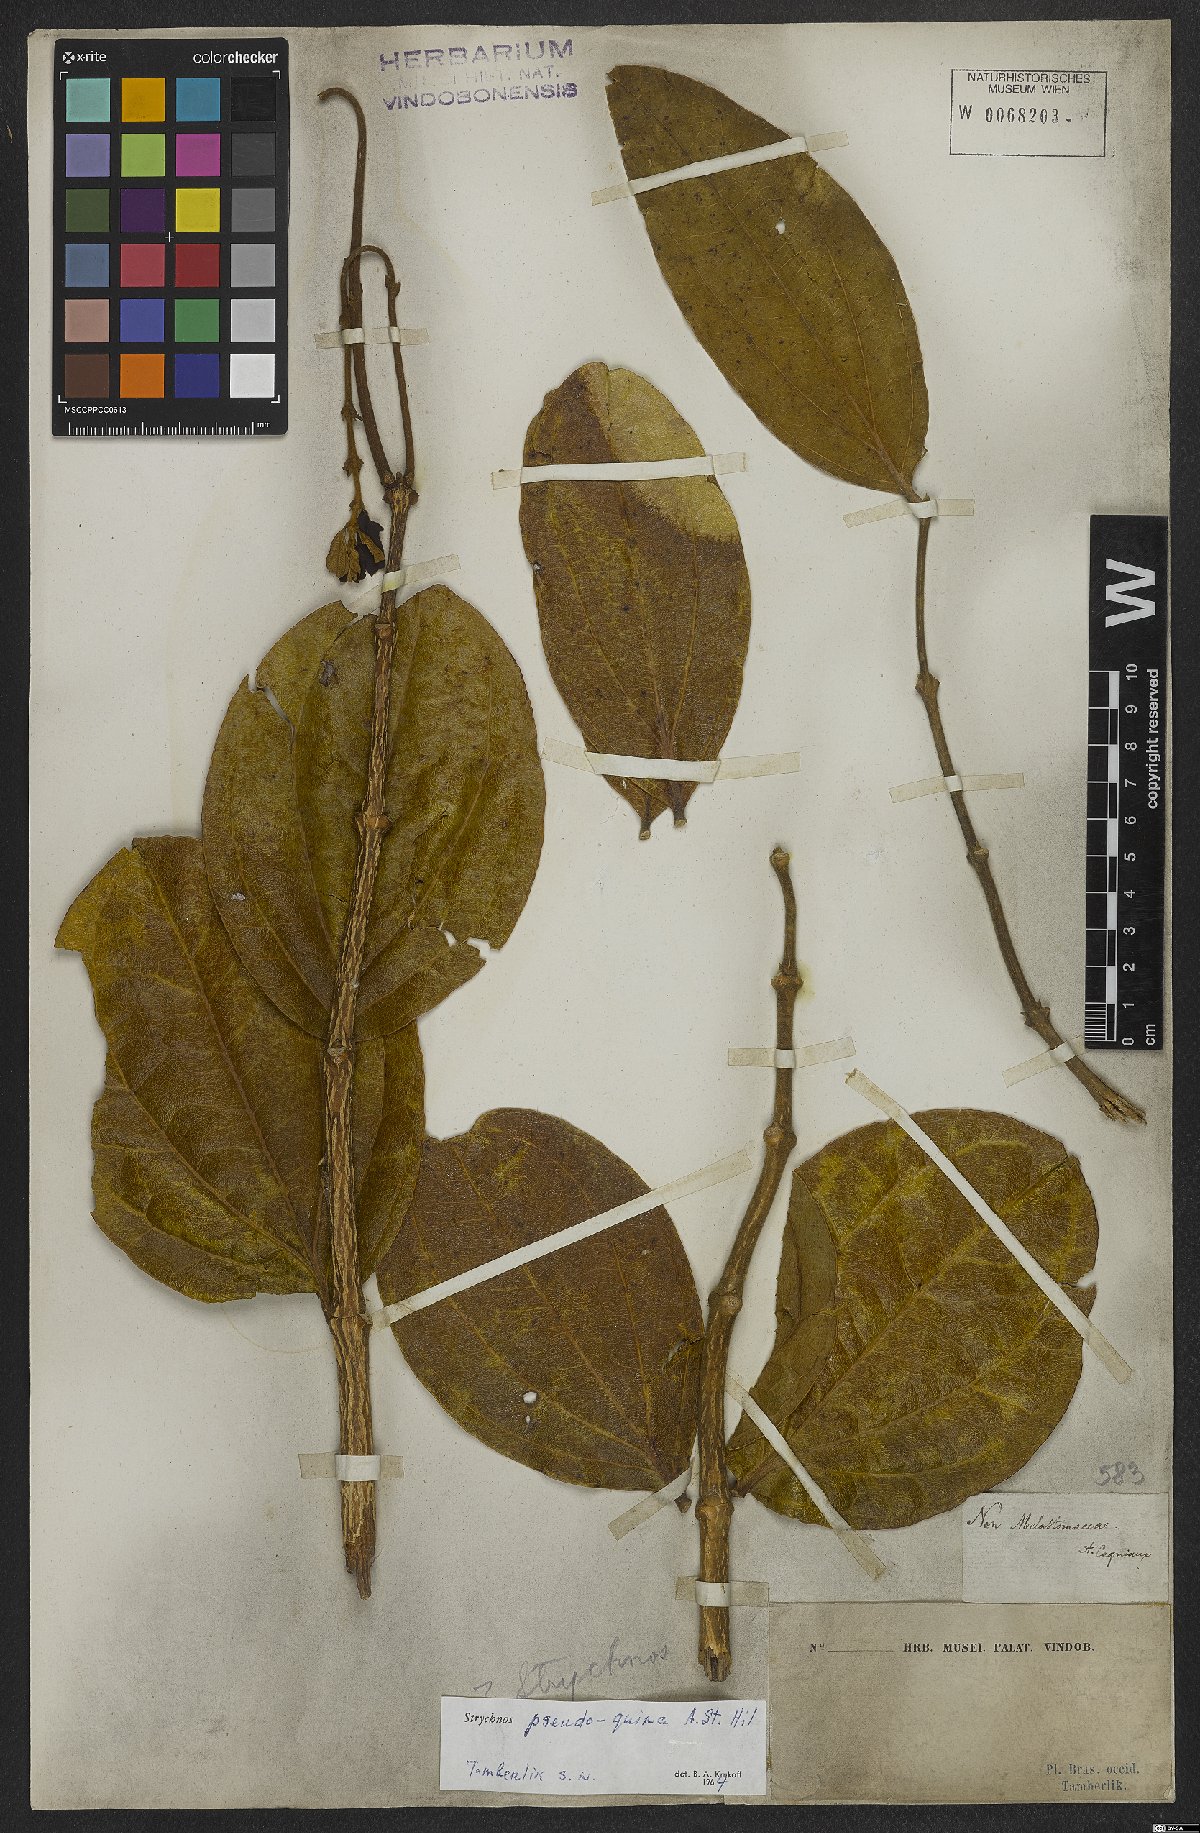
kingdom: Plantae
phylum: Tracheophyta
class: Magnoliopsida
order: Gentianales
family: Loganiaceae
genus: Strychnos
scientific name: Strychnos pseudoquina
